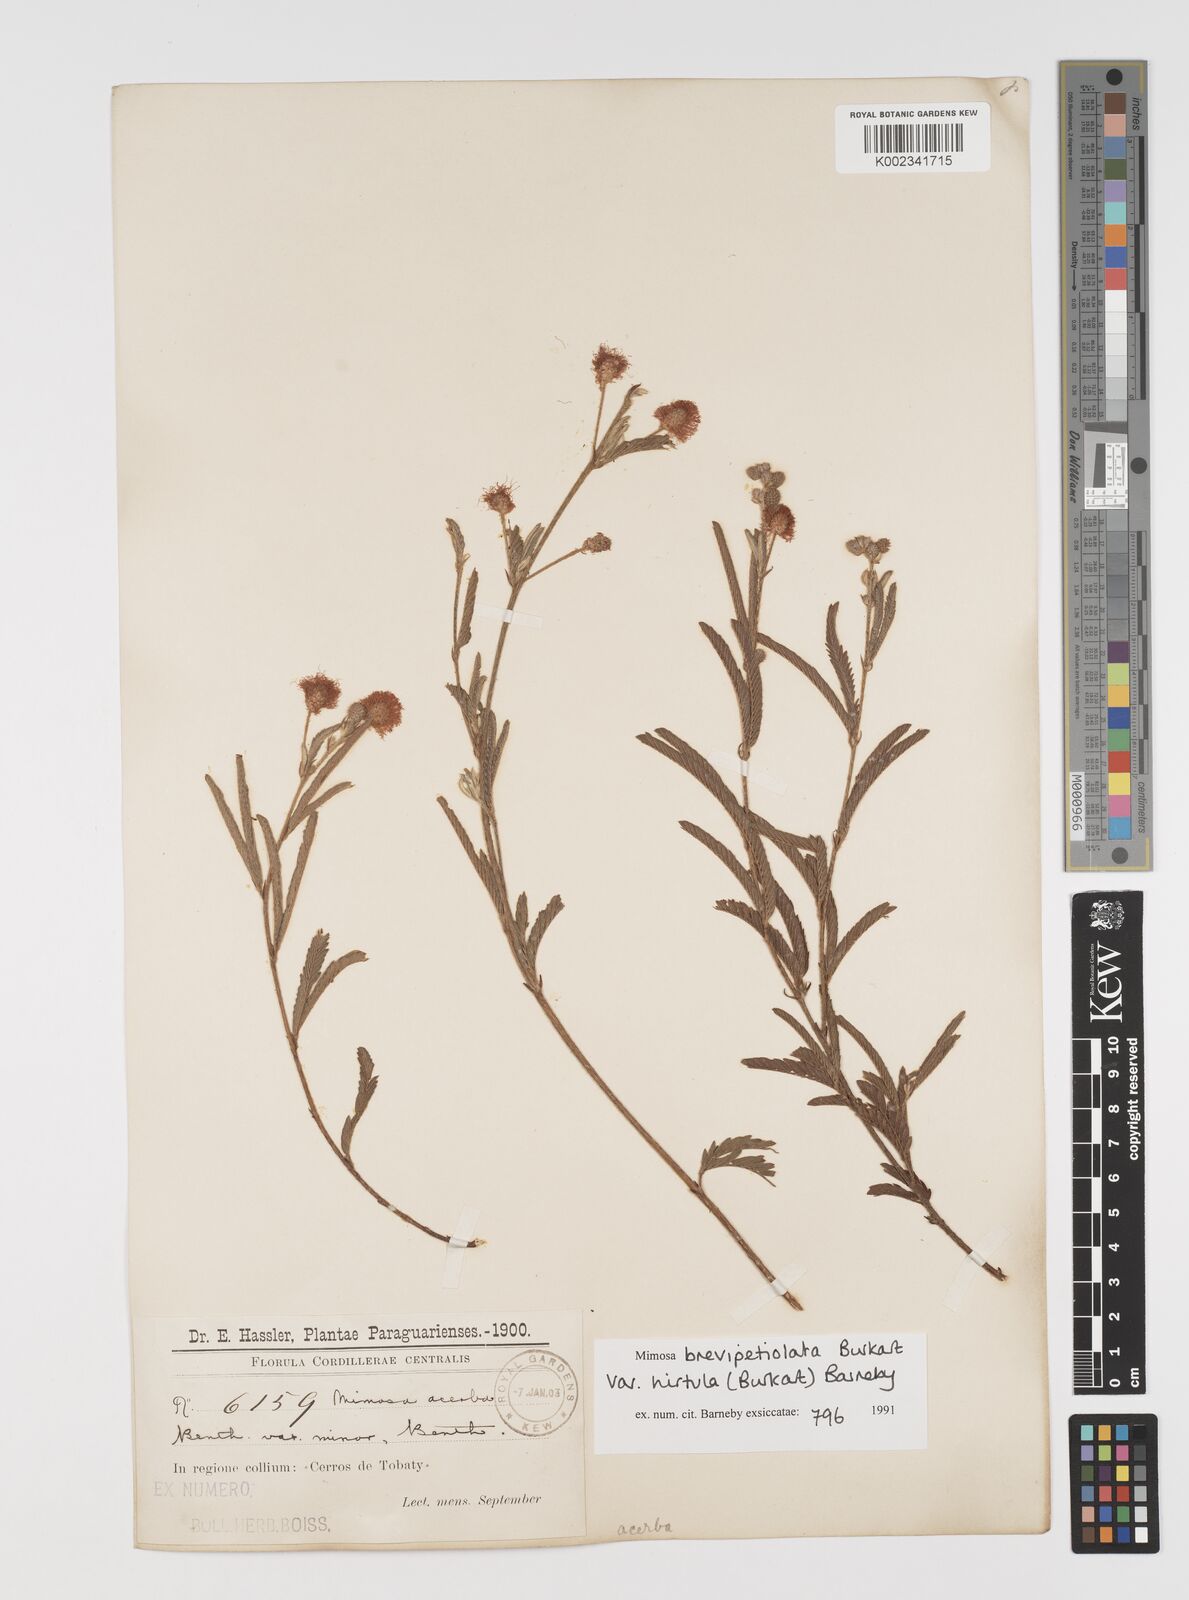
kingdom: Plantae
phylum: Tracheophyta
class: Magnoliopsida
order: Fabales
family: Fabaceae
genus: Mimosa
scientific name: Mimosa brevipetiolata
